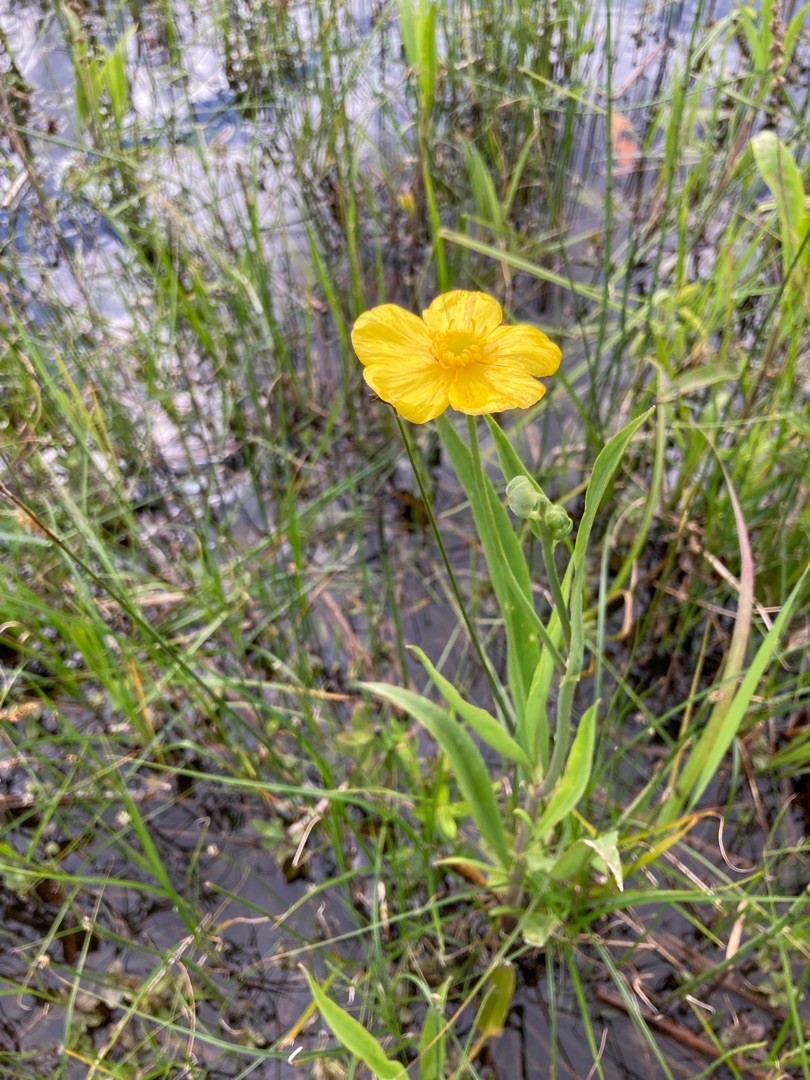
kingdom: Plantae
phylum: Tracheophyta
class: Magnoliopsida
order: Ranunculales
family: Ranunculaceae
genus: Ranunculus
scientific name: Ranunculus lingua
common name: Langbladet ranunkel
